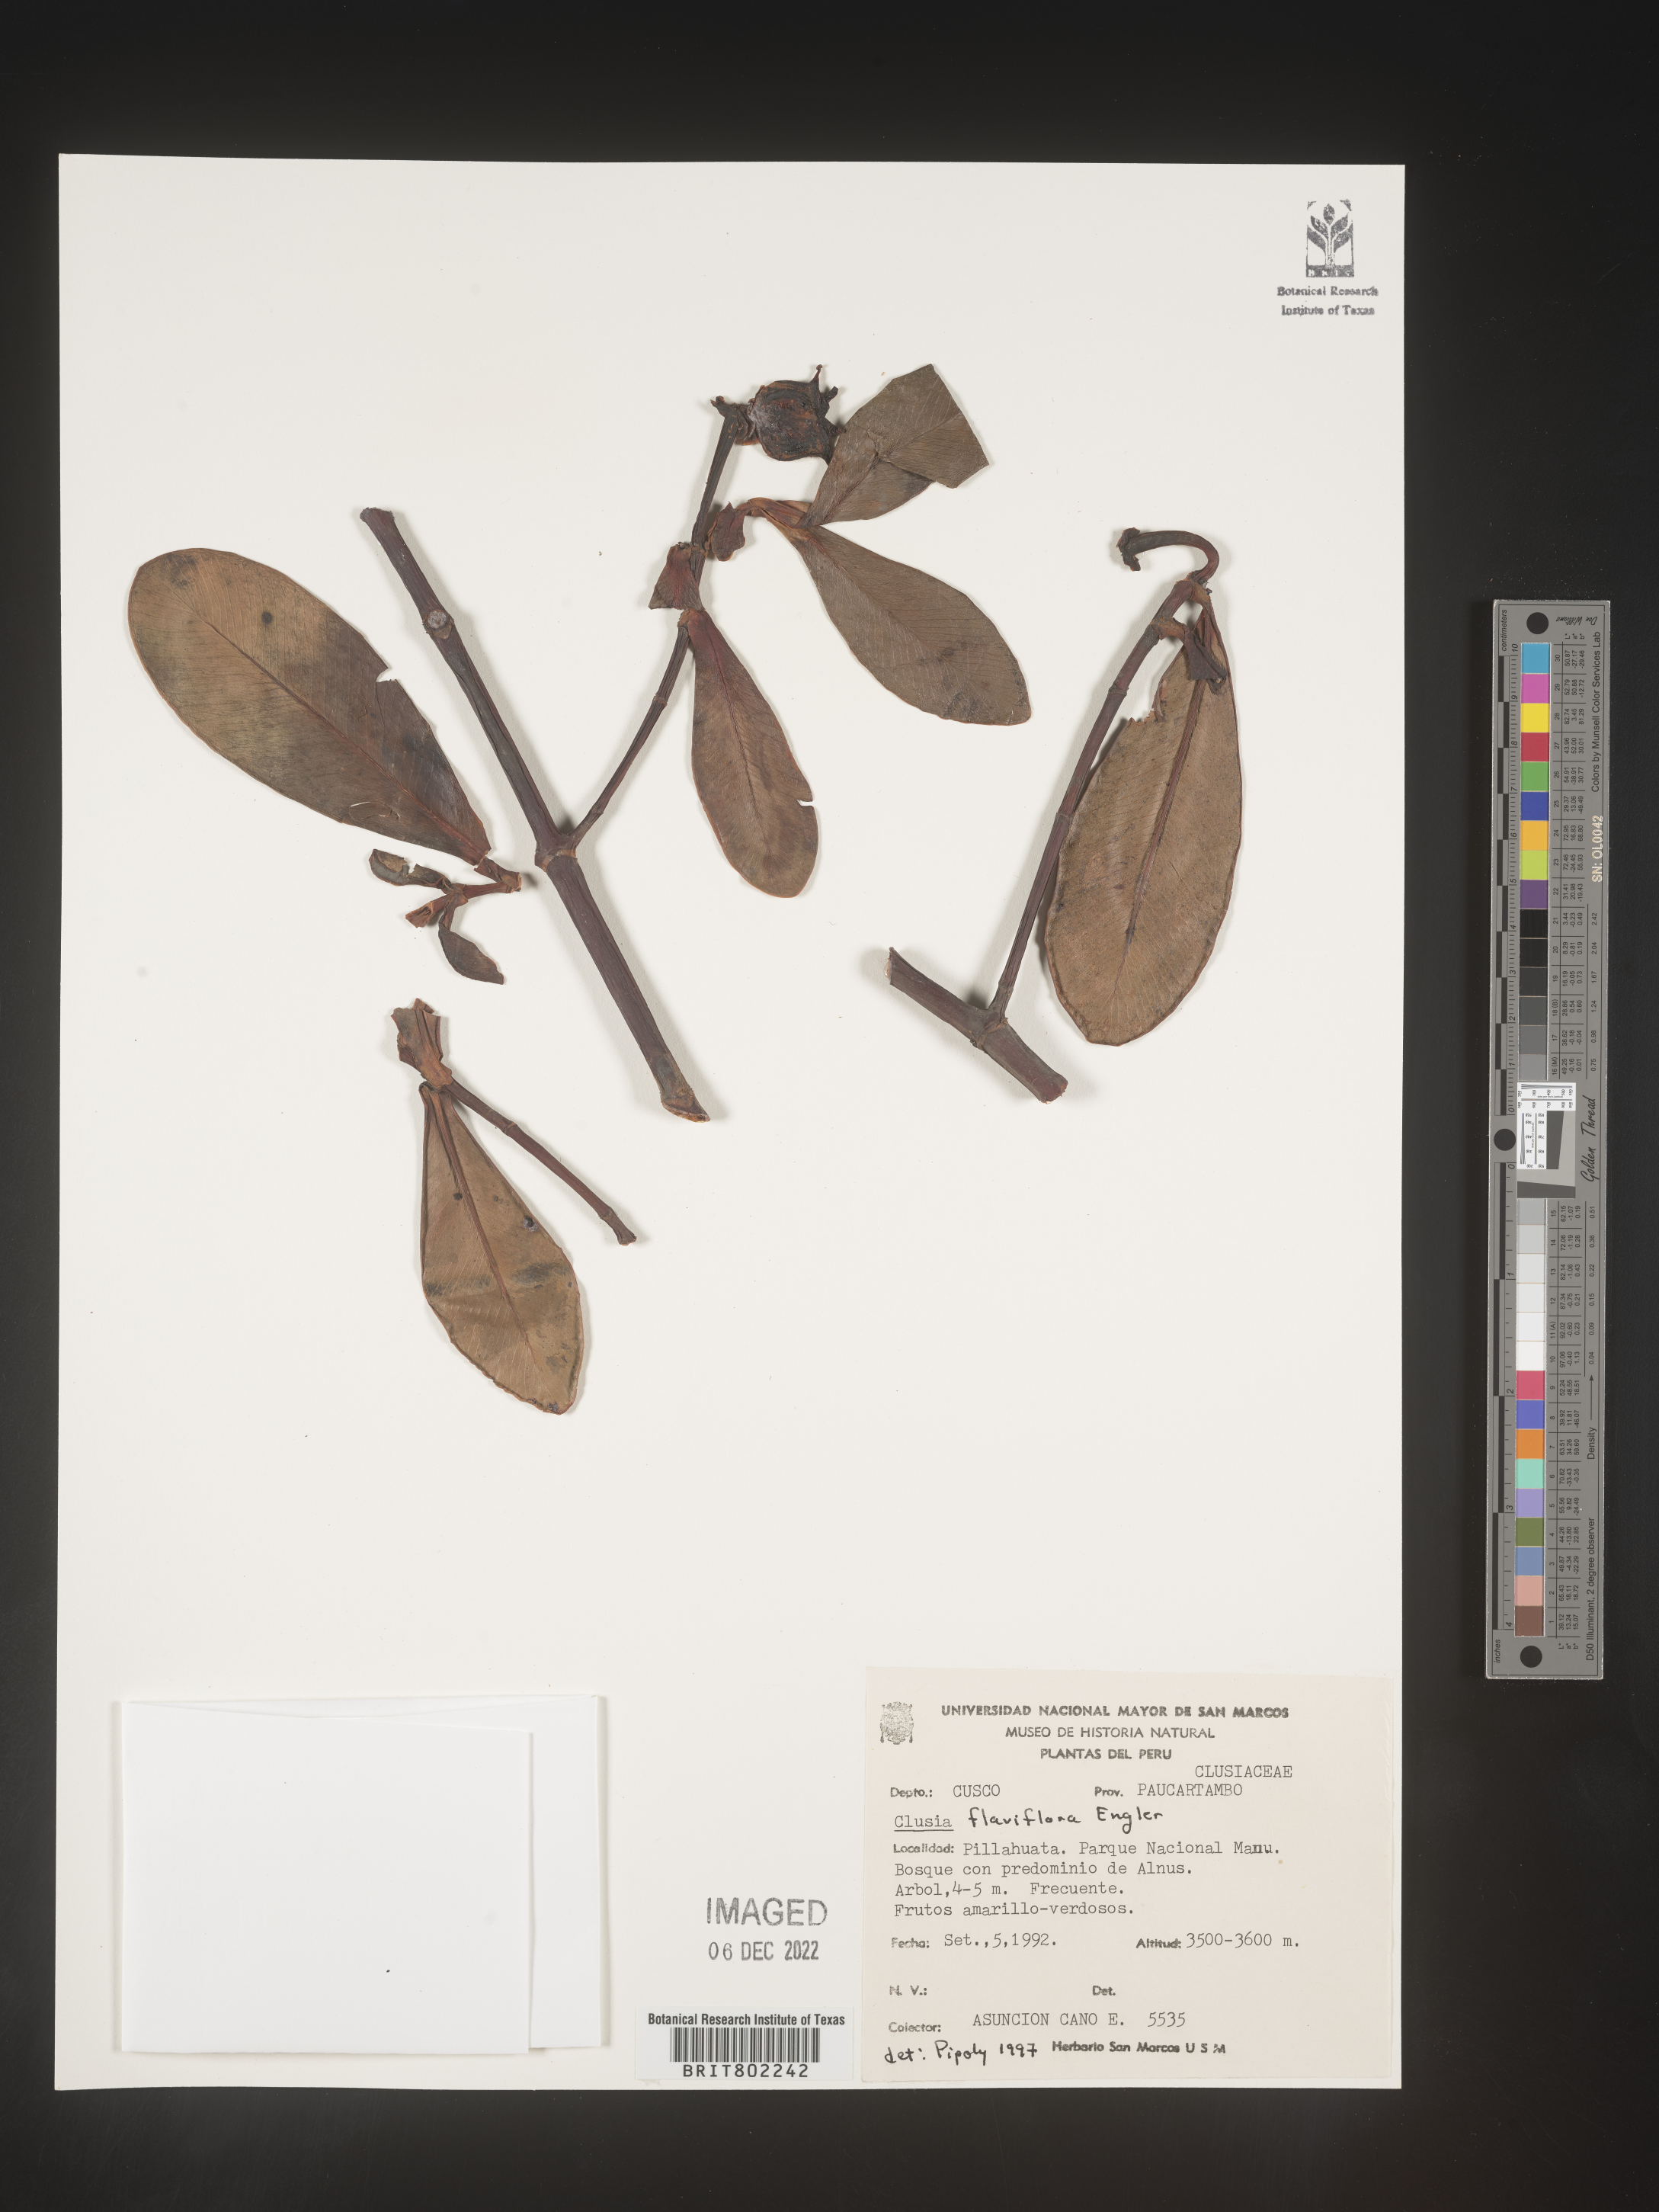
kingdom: Plantae
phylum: Tracheophyta
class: Magnoliopsida
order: Malpighiales
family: Clusiaceae
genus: Clusia
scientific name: Clusia sphaerocarpa
